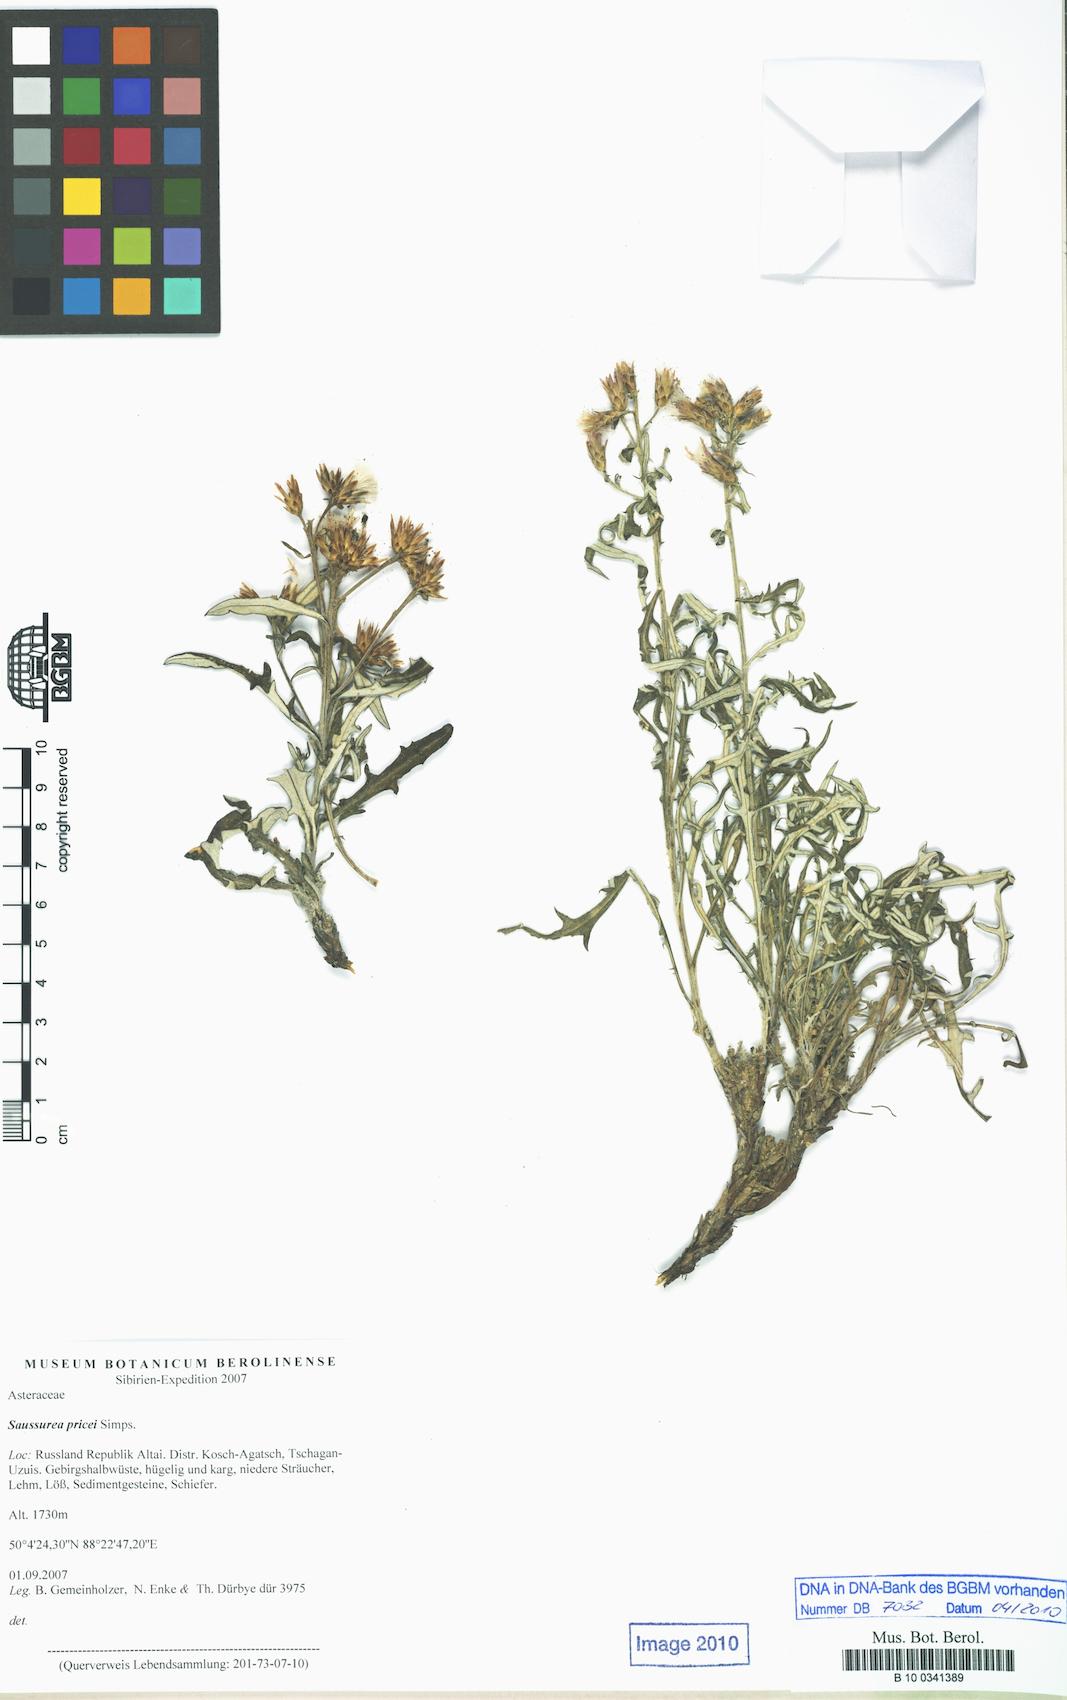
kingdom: Plantae
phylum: Tracheophyta
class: Magnoliopsida
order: Asterales
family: Asteraceae
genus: Saussurea
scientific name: Saussurea pricei
